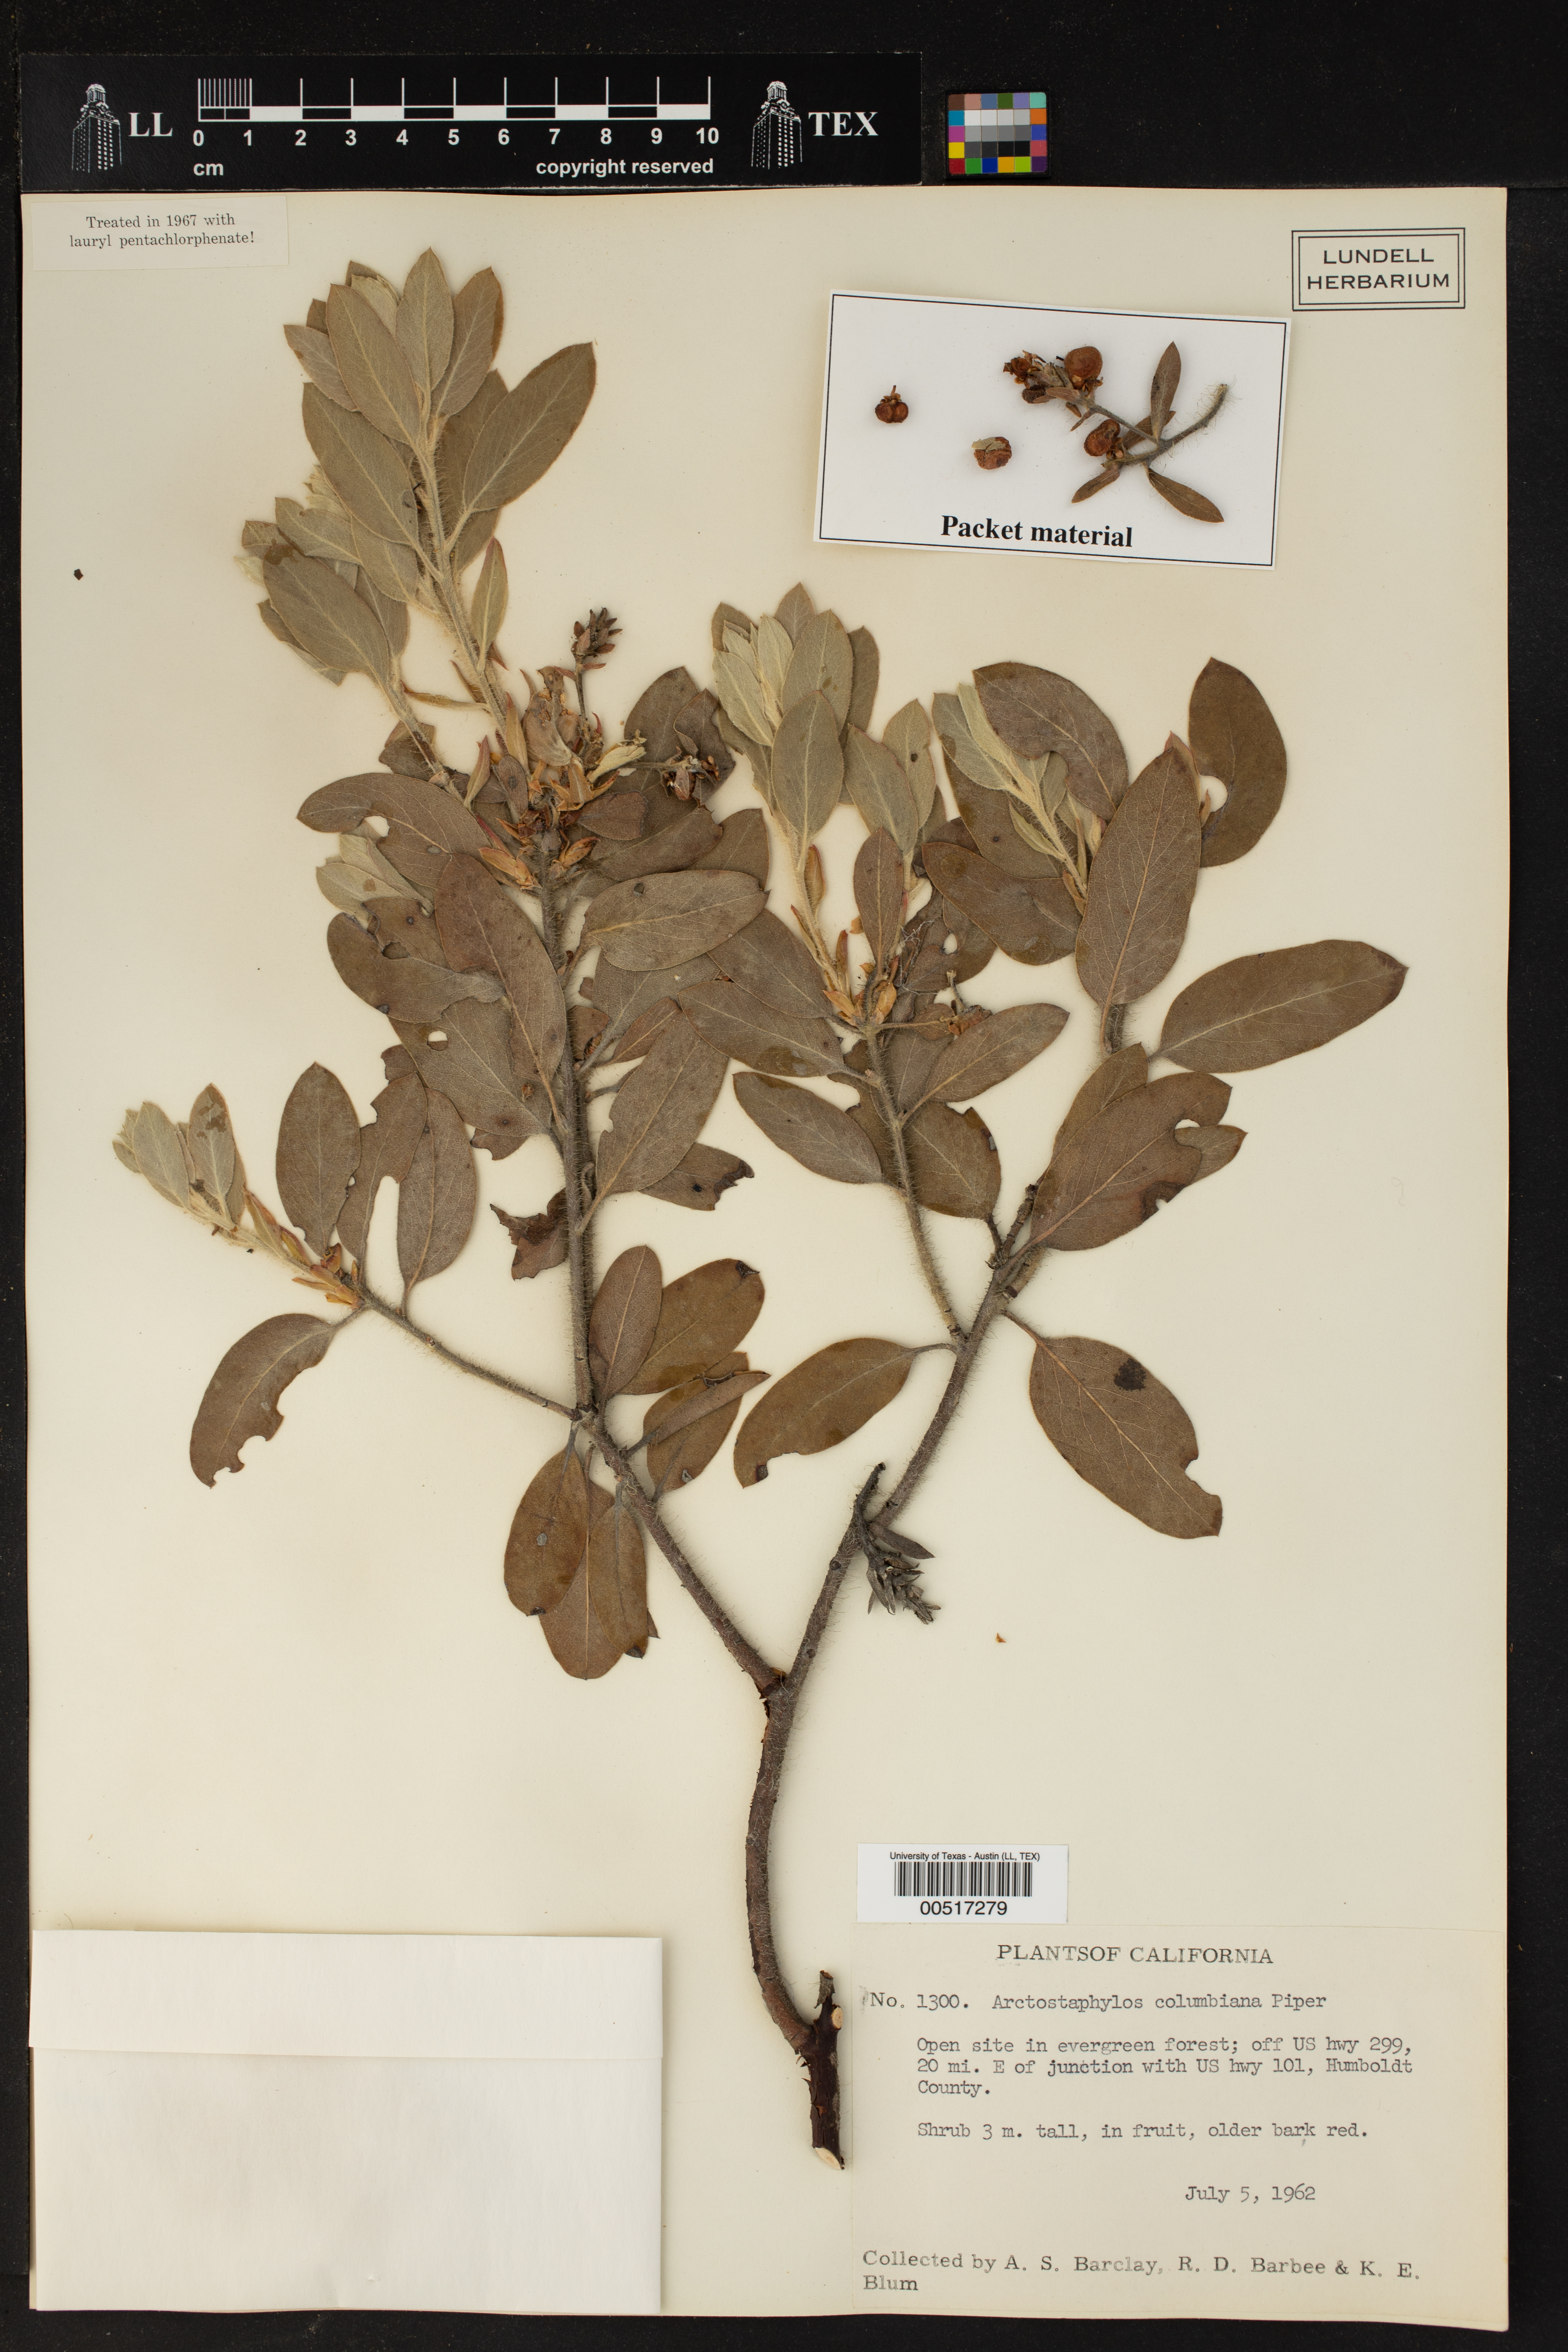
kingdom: Plantae
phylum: Tracheophyta
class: Magnoliopsida
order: Ericales
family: Ericaceae
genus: Arctostaphylos
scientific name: Arctostaphylos columbiana
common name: Bristly bearberry
